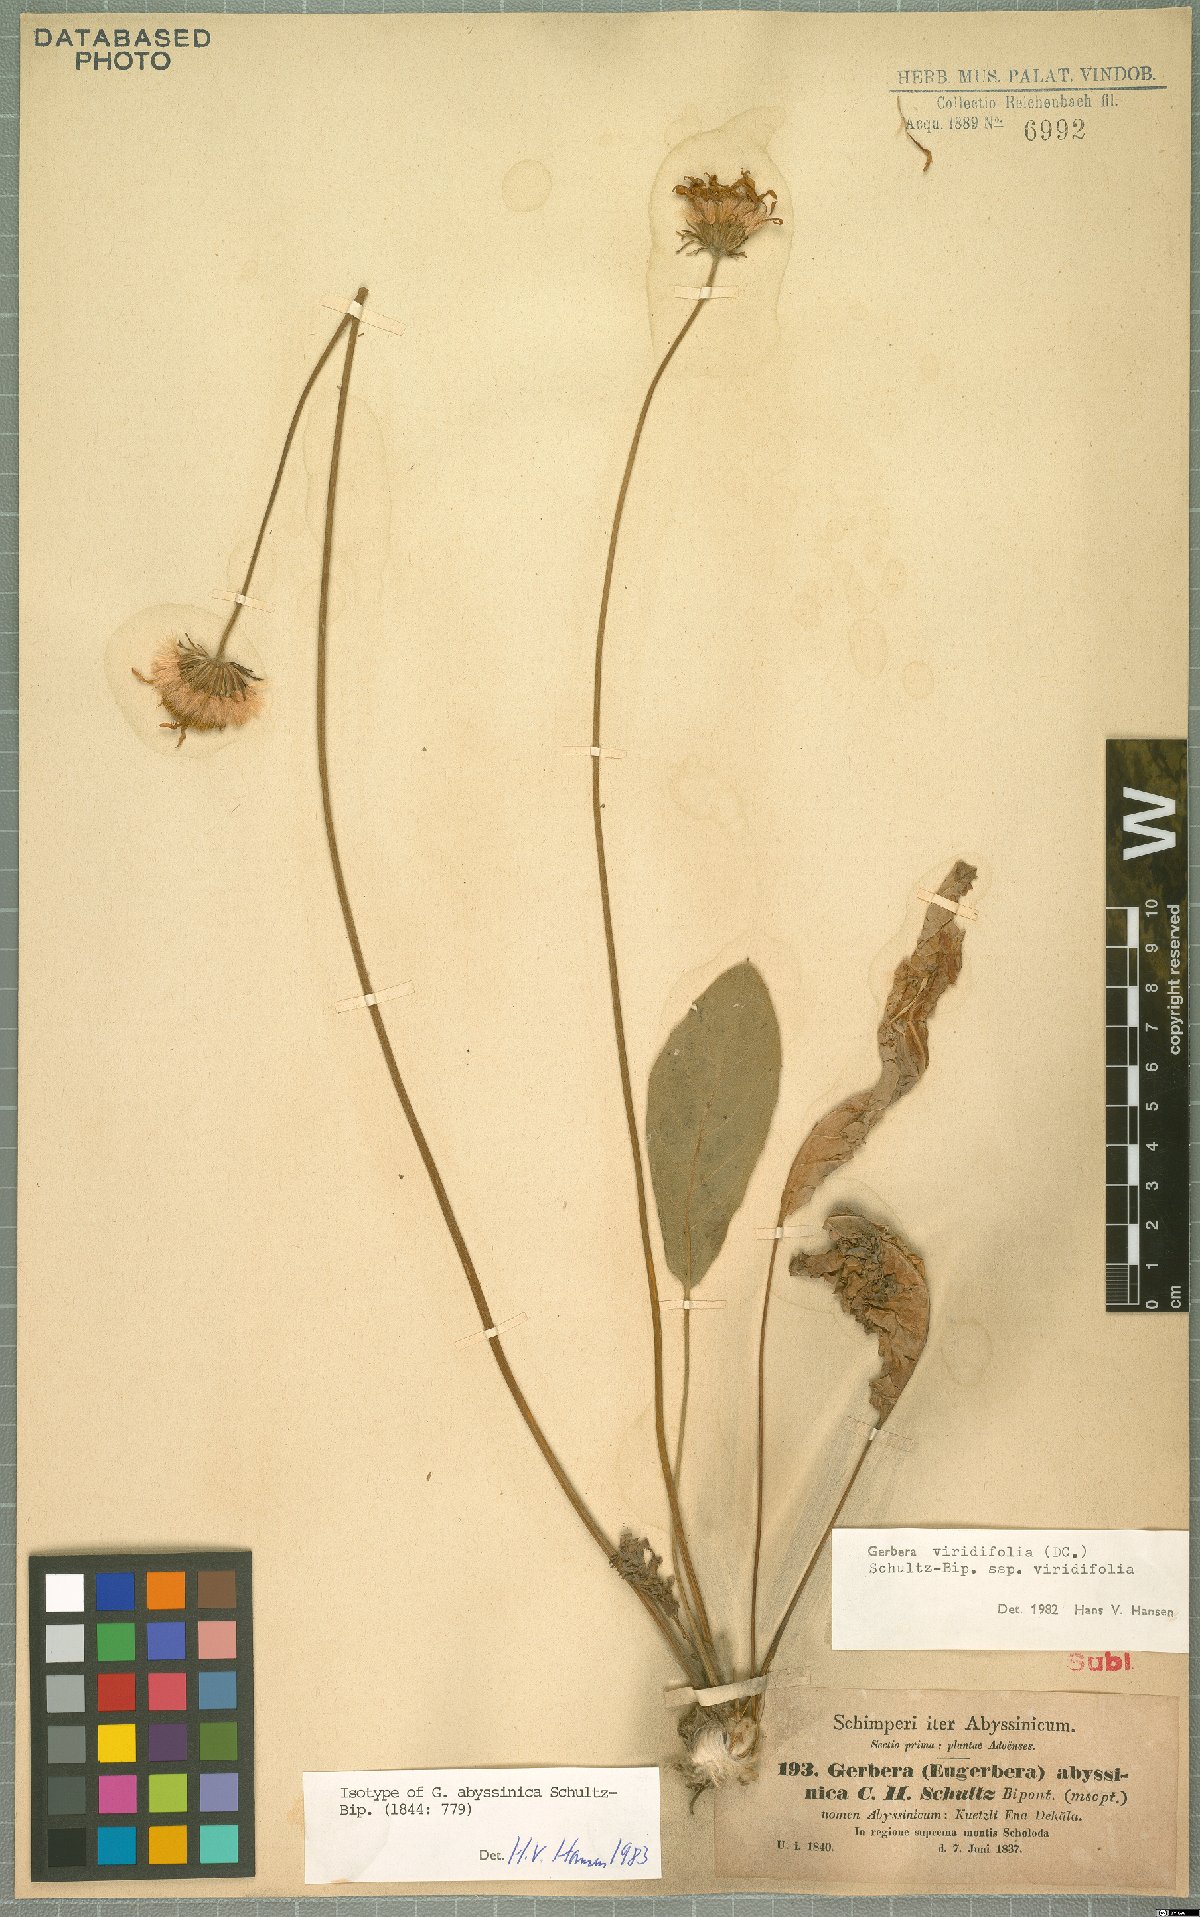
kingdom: Plantae
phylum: Tracheophyta
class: Magnoliopsida
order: Asterales
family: Asteraceae
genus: Gerbera
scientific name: Gerbera viridifolia
